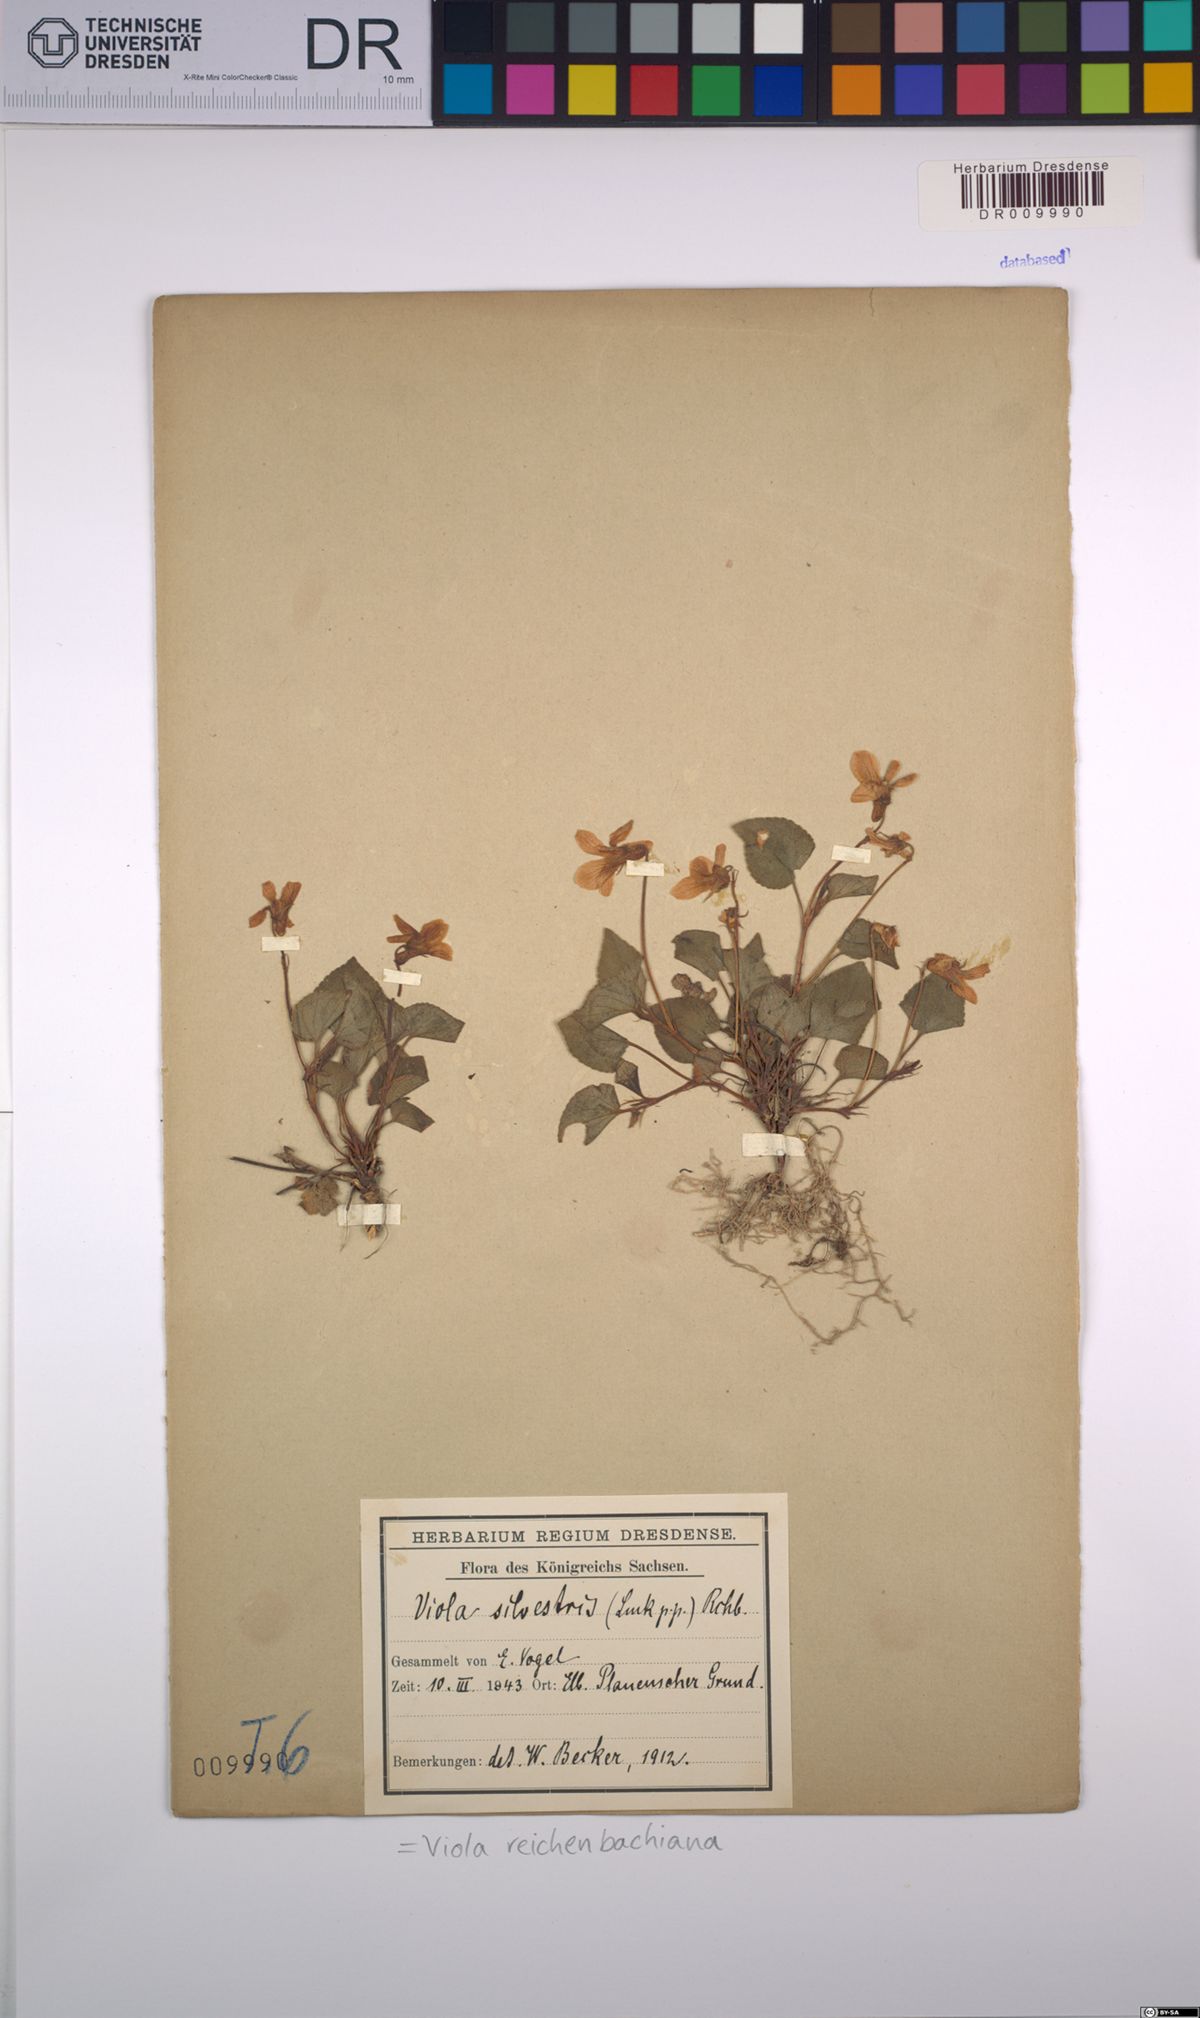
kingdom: Plantae
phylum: Tracheophyta
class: Magnoliopsida
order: Malpighiales
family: Violaceae
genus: Viola
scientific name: Viola reichenbachiana
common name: Early dog-violet
